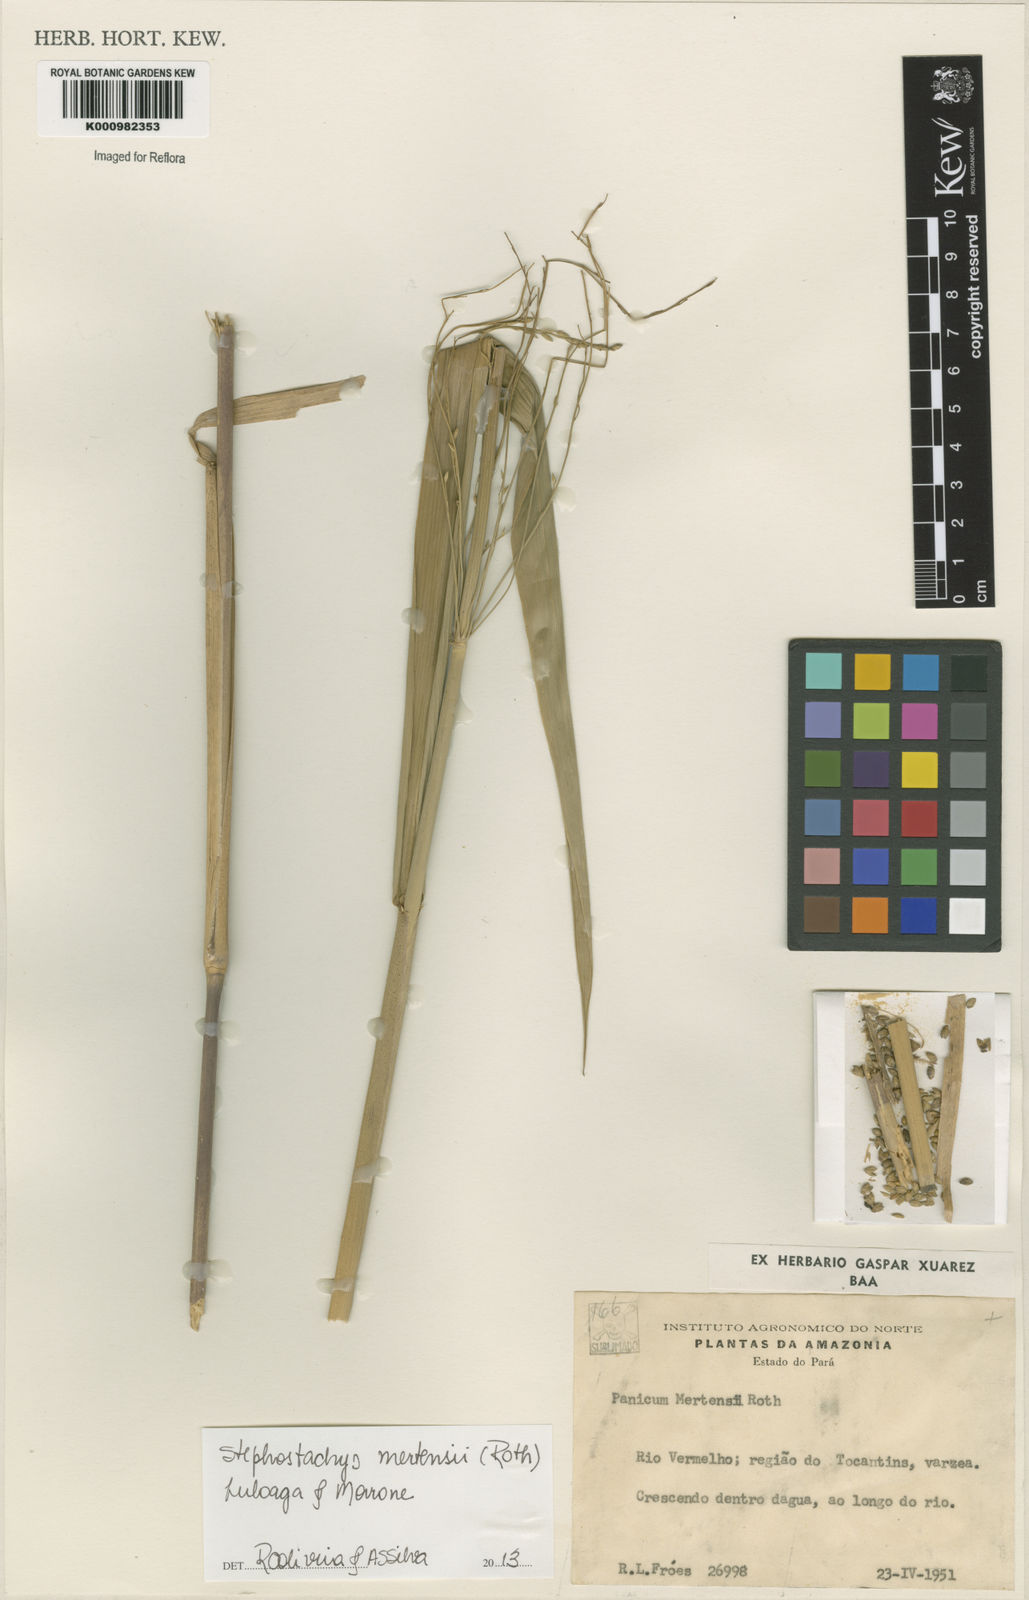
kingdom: Plantae
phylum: Tracheophyta
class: Liliopsida
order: Poales
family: Poaceae
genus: Stephostachys
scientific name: Stephostachys mertensii
